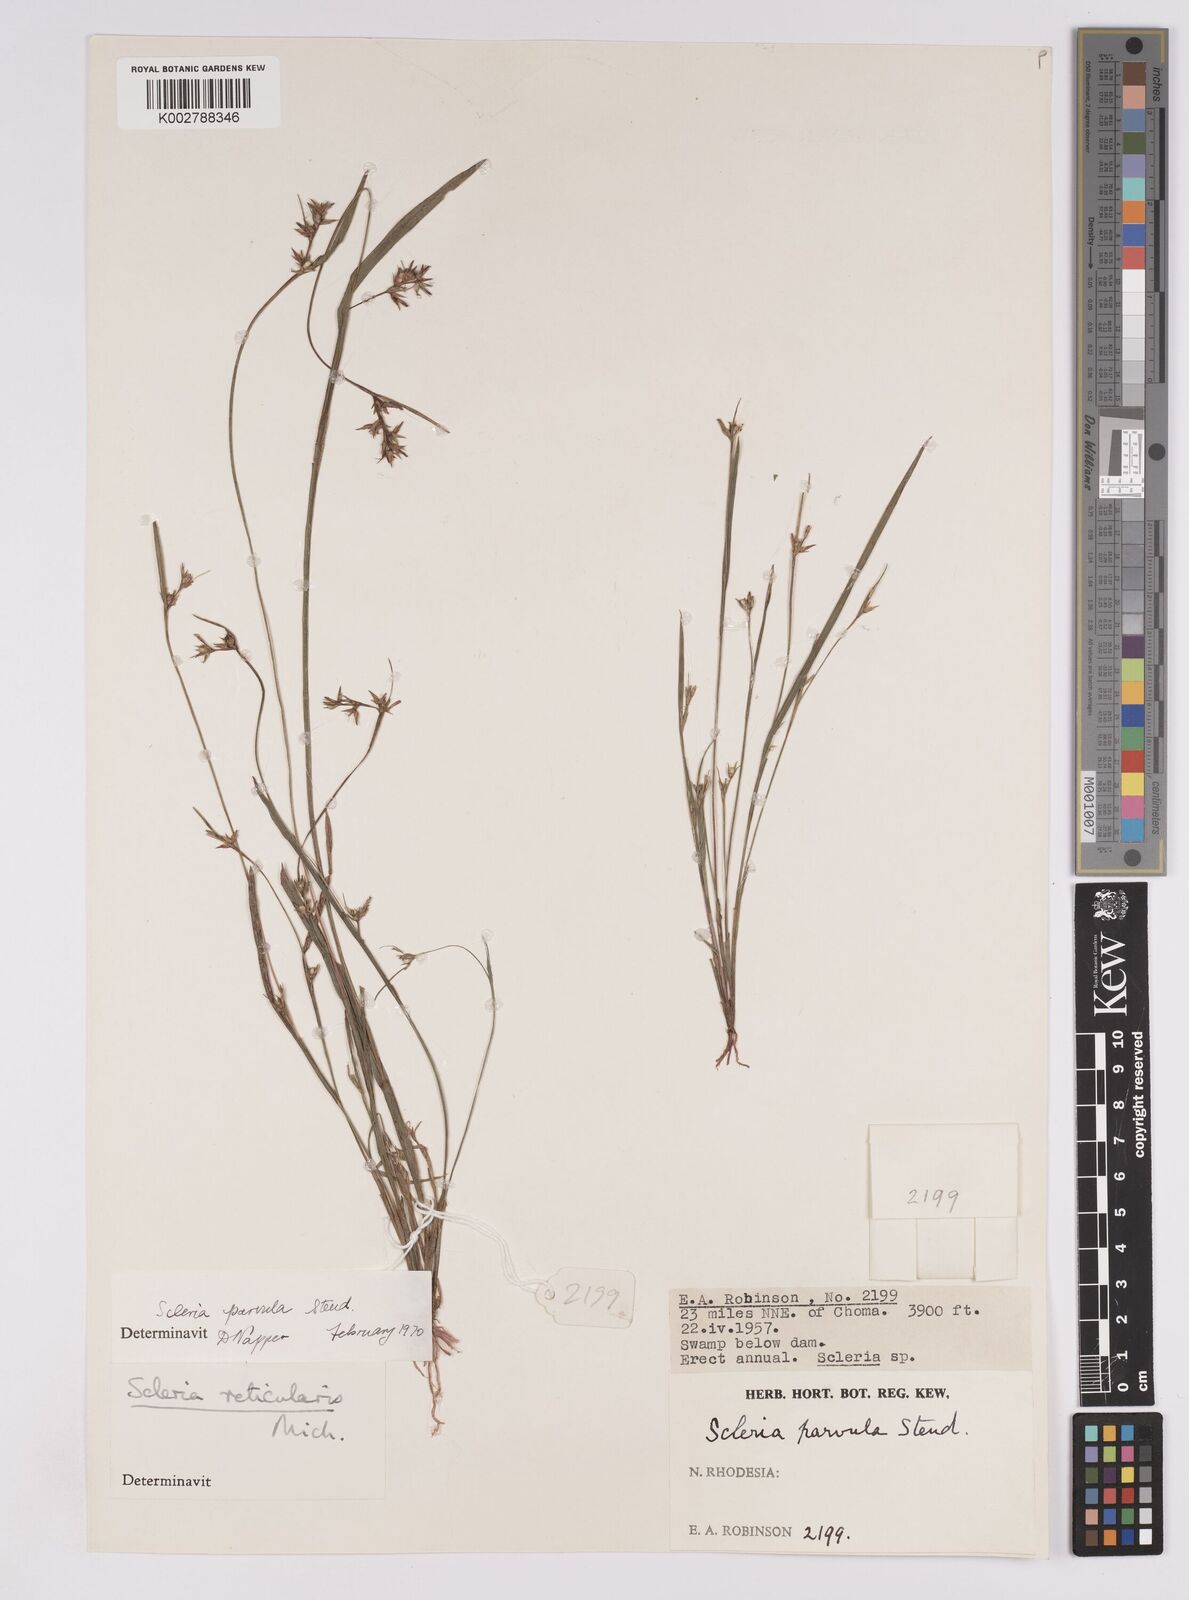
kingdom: Plantae
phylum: Tracheophyta
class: Liliopsida
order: Poales
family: Cyperaceae
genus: Scleria
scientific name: Scleria parvula
